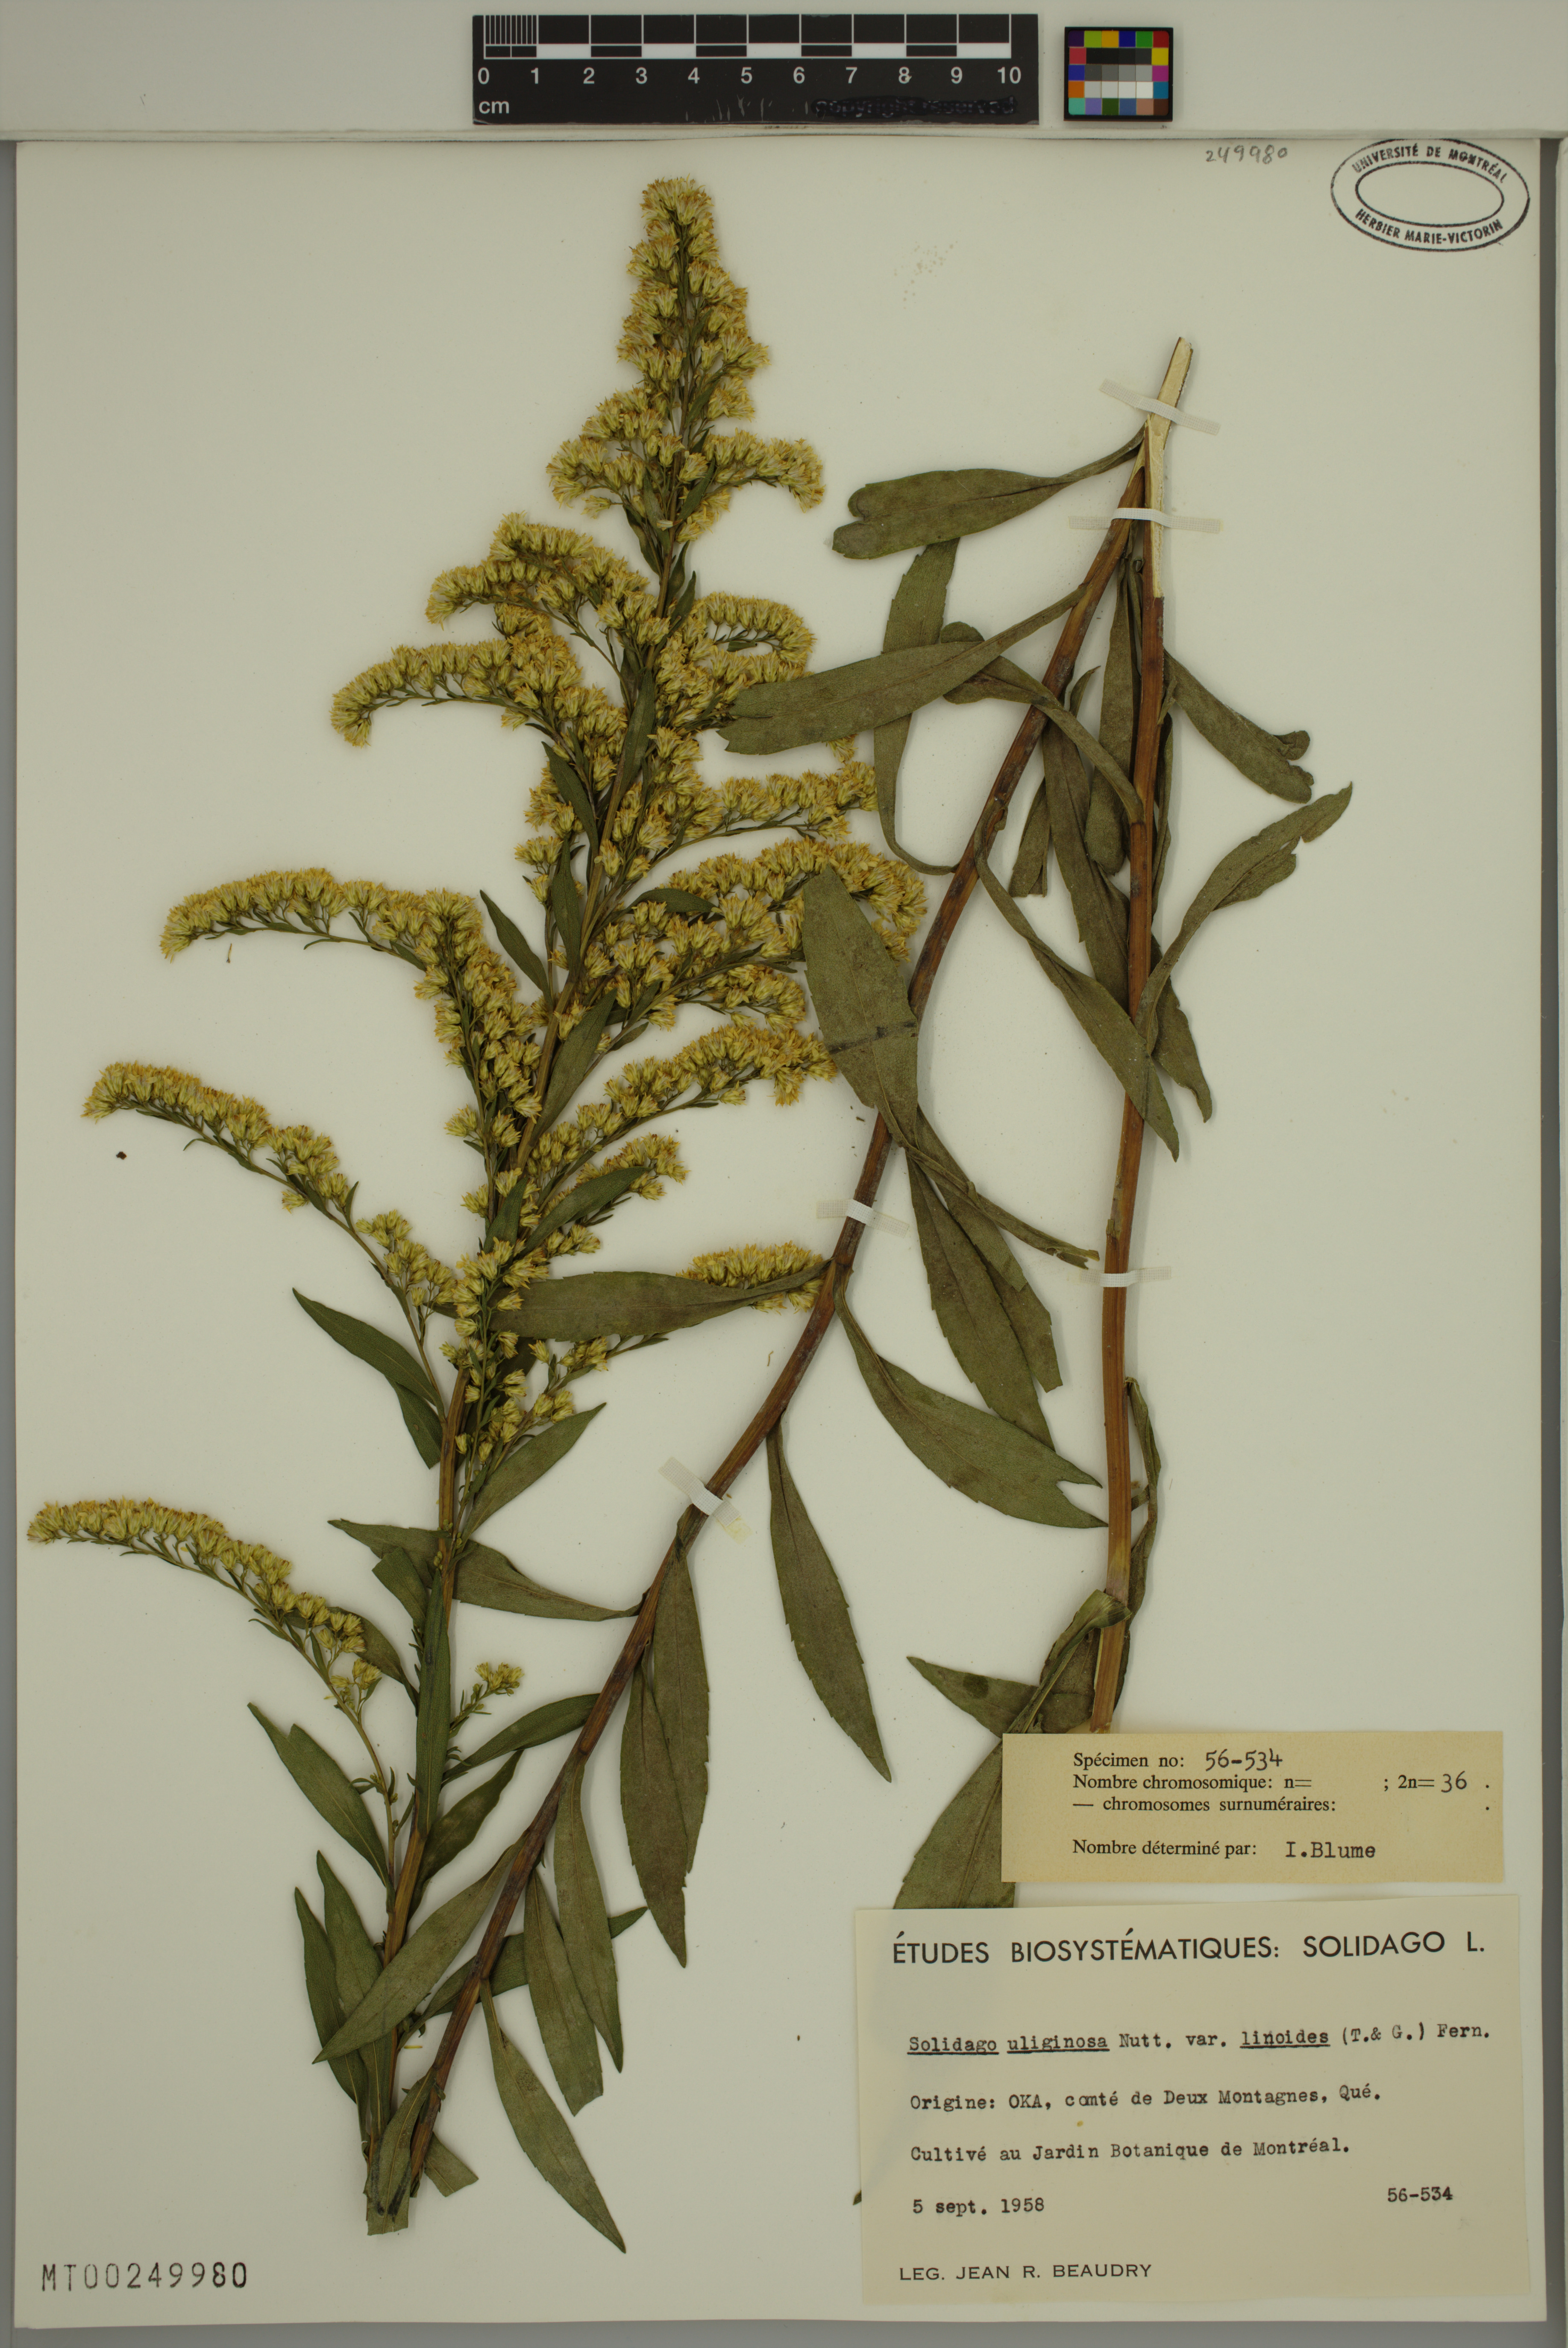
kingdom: Plantae
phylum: Tracheophyta
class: Magnoliopsida
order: Asterales
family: Asteraceae
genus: Solidago
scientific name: Solidago uliginosa
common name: Bog goldenrod
